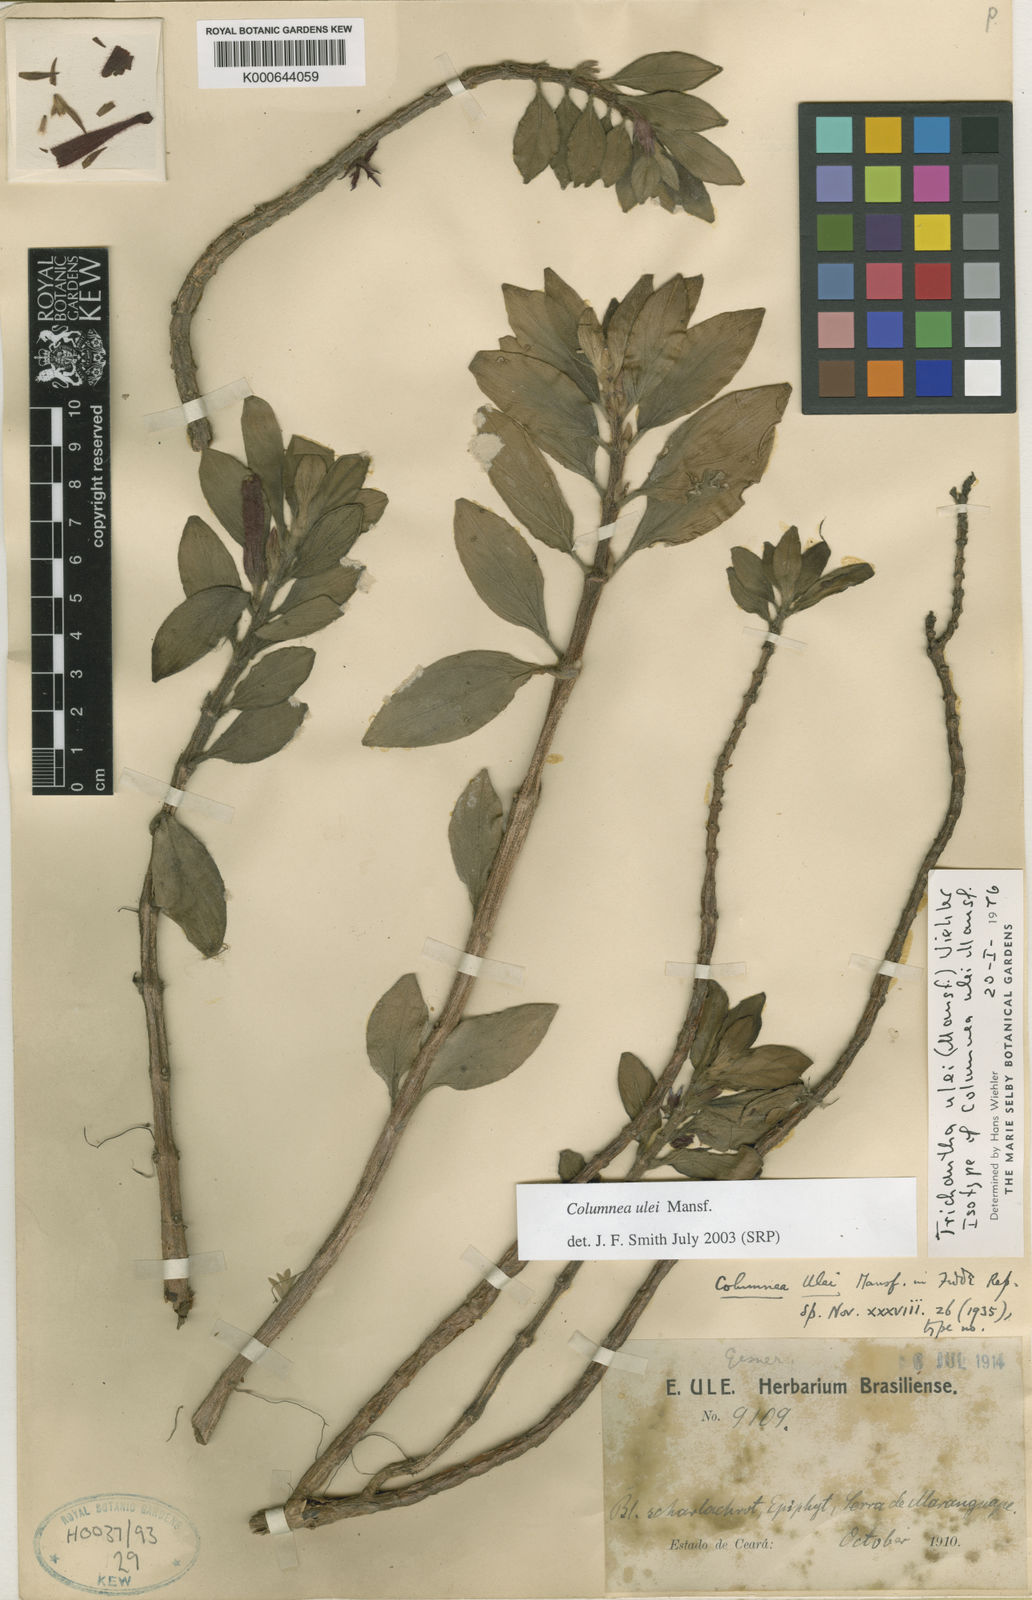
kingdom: Plantae
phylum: Tracheophyta
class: Magnoliopsida
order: Lamiales
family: Gesneriaceae
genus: Columnea
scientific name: Columnea ulei
